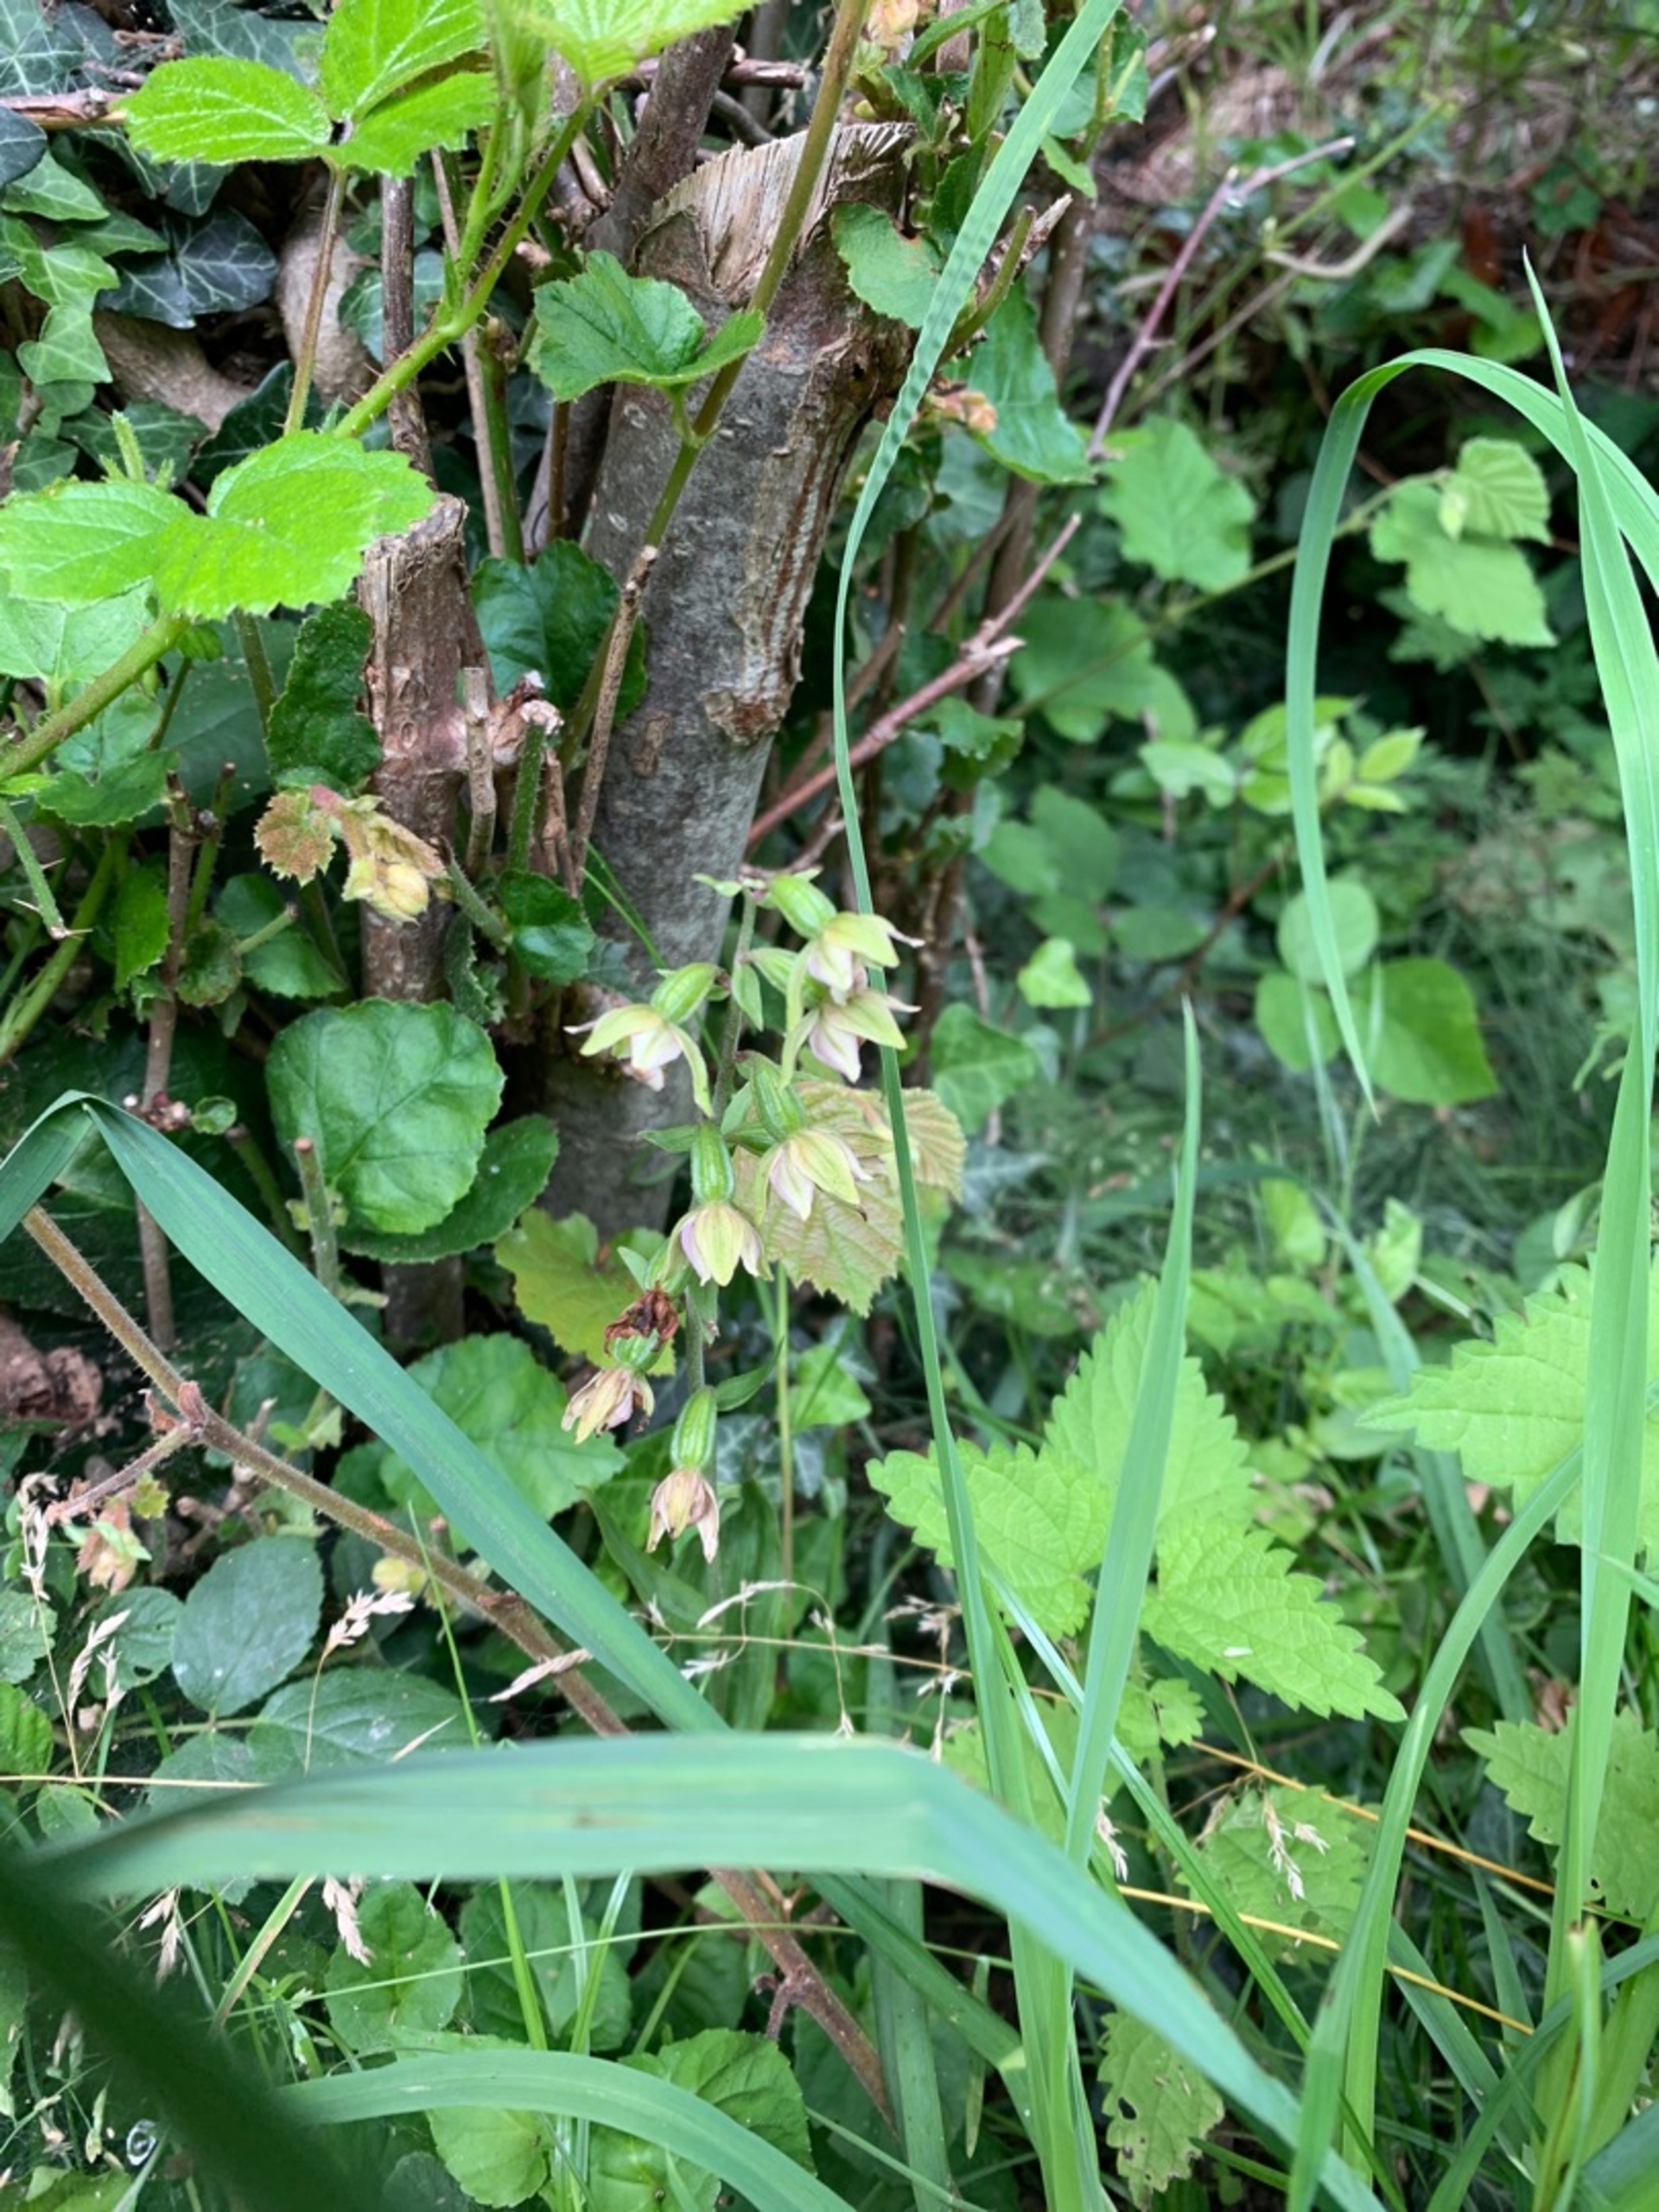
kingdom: Plantae
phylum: Tracheophyta
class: Liliopsida
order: Asparagales
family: Orchidaceae
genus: Epipactis
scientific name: Epipactis helleborine
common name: Skov-hullæbe
